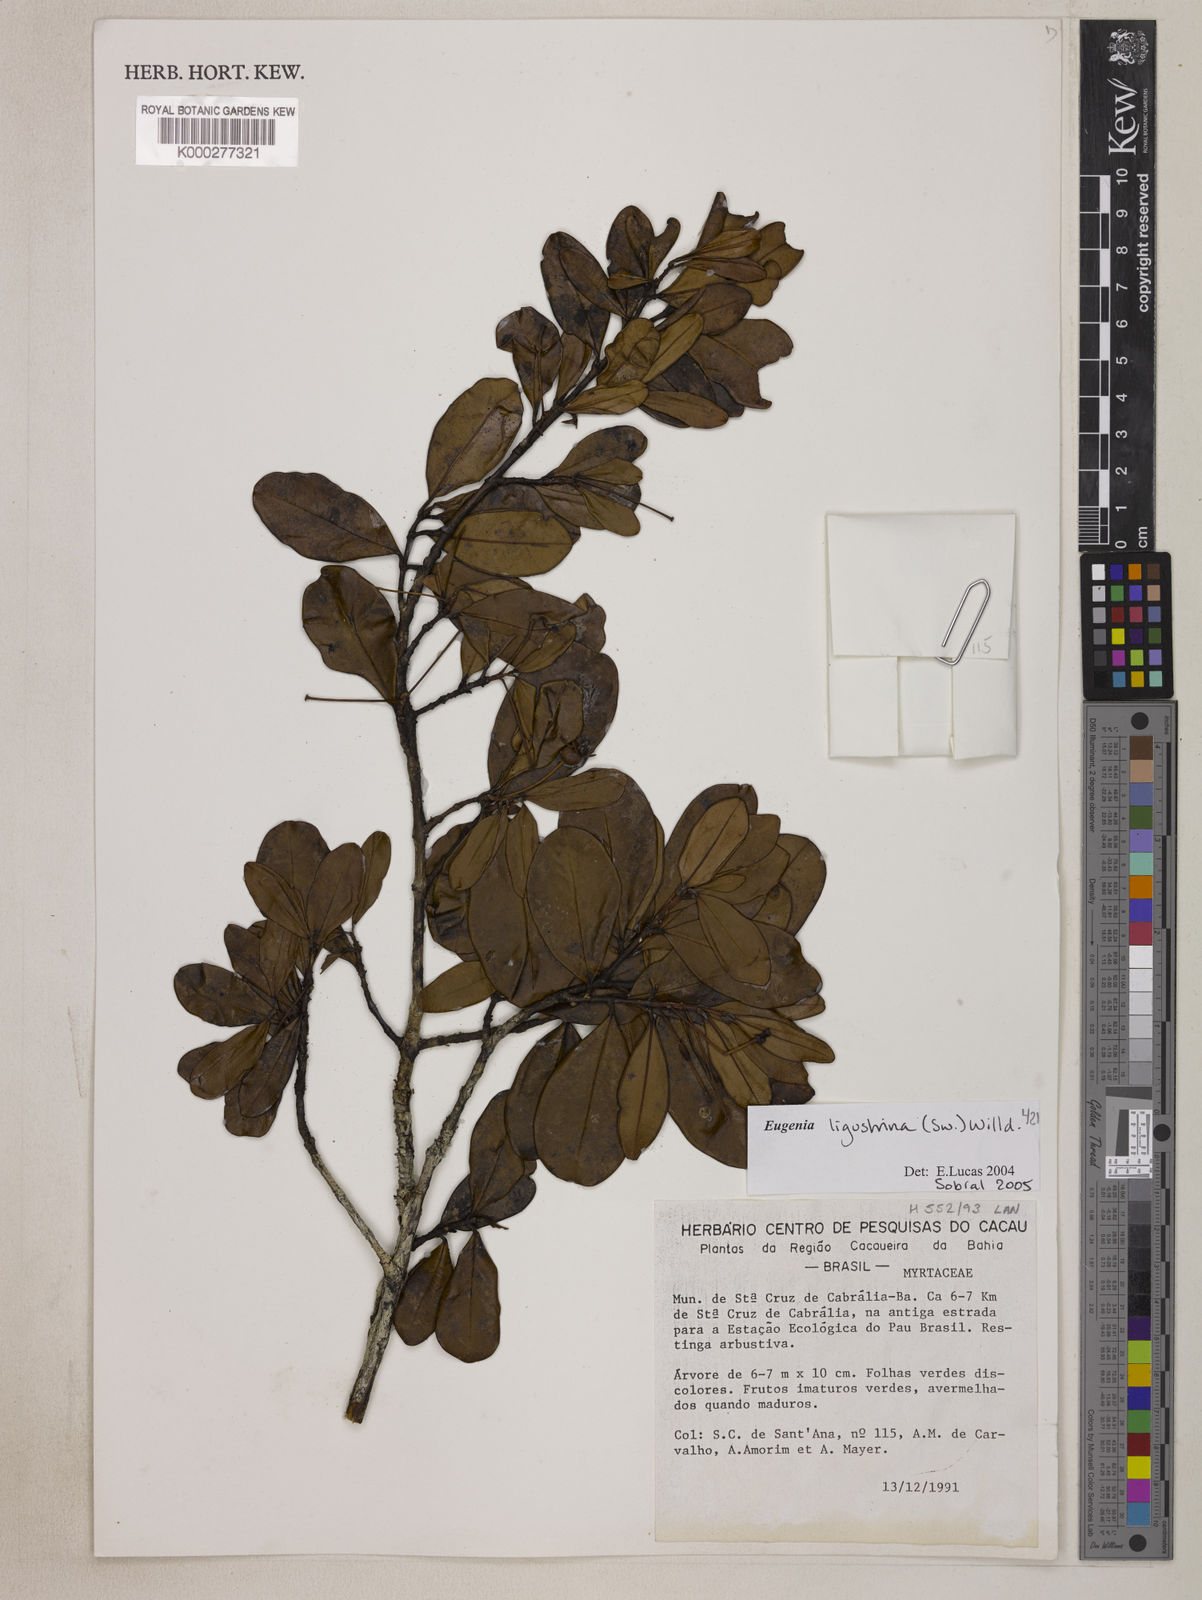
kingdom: Plantae
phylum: Tracheophyta
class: Magnoliopsida
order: Myrtales
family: Myrtaceae
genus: Eugenia
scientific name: Eugenia ligustrina
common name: Privet stopper
